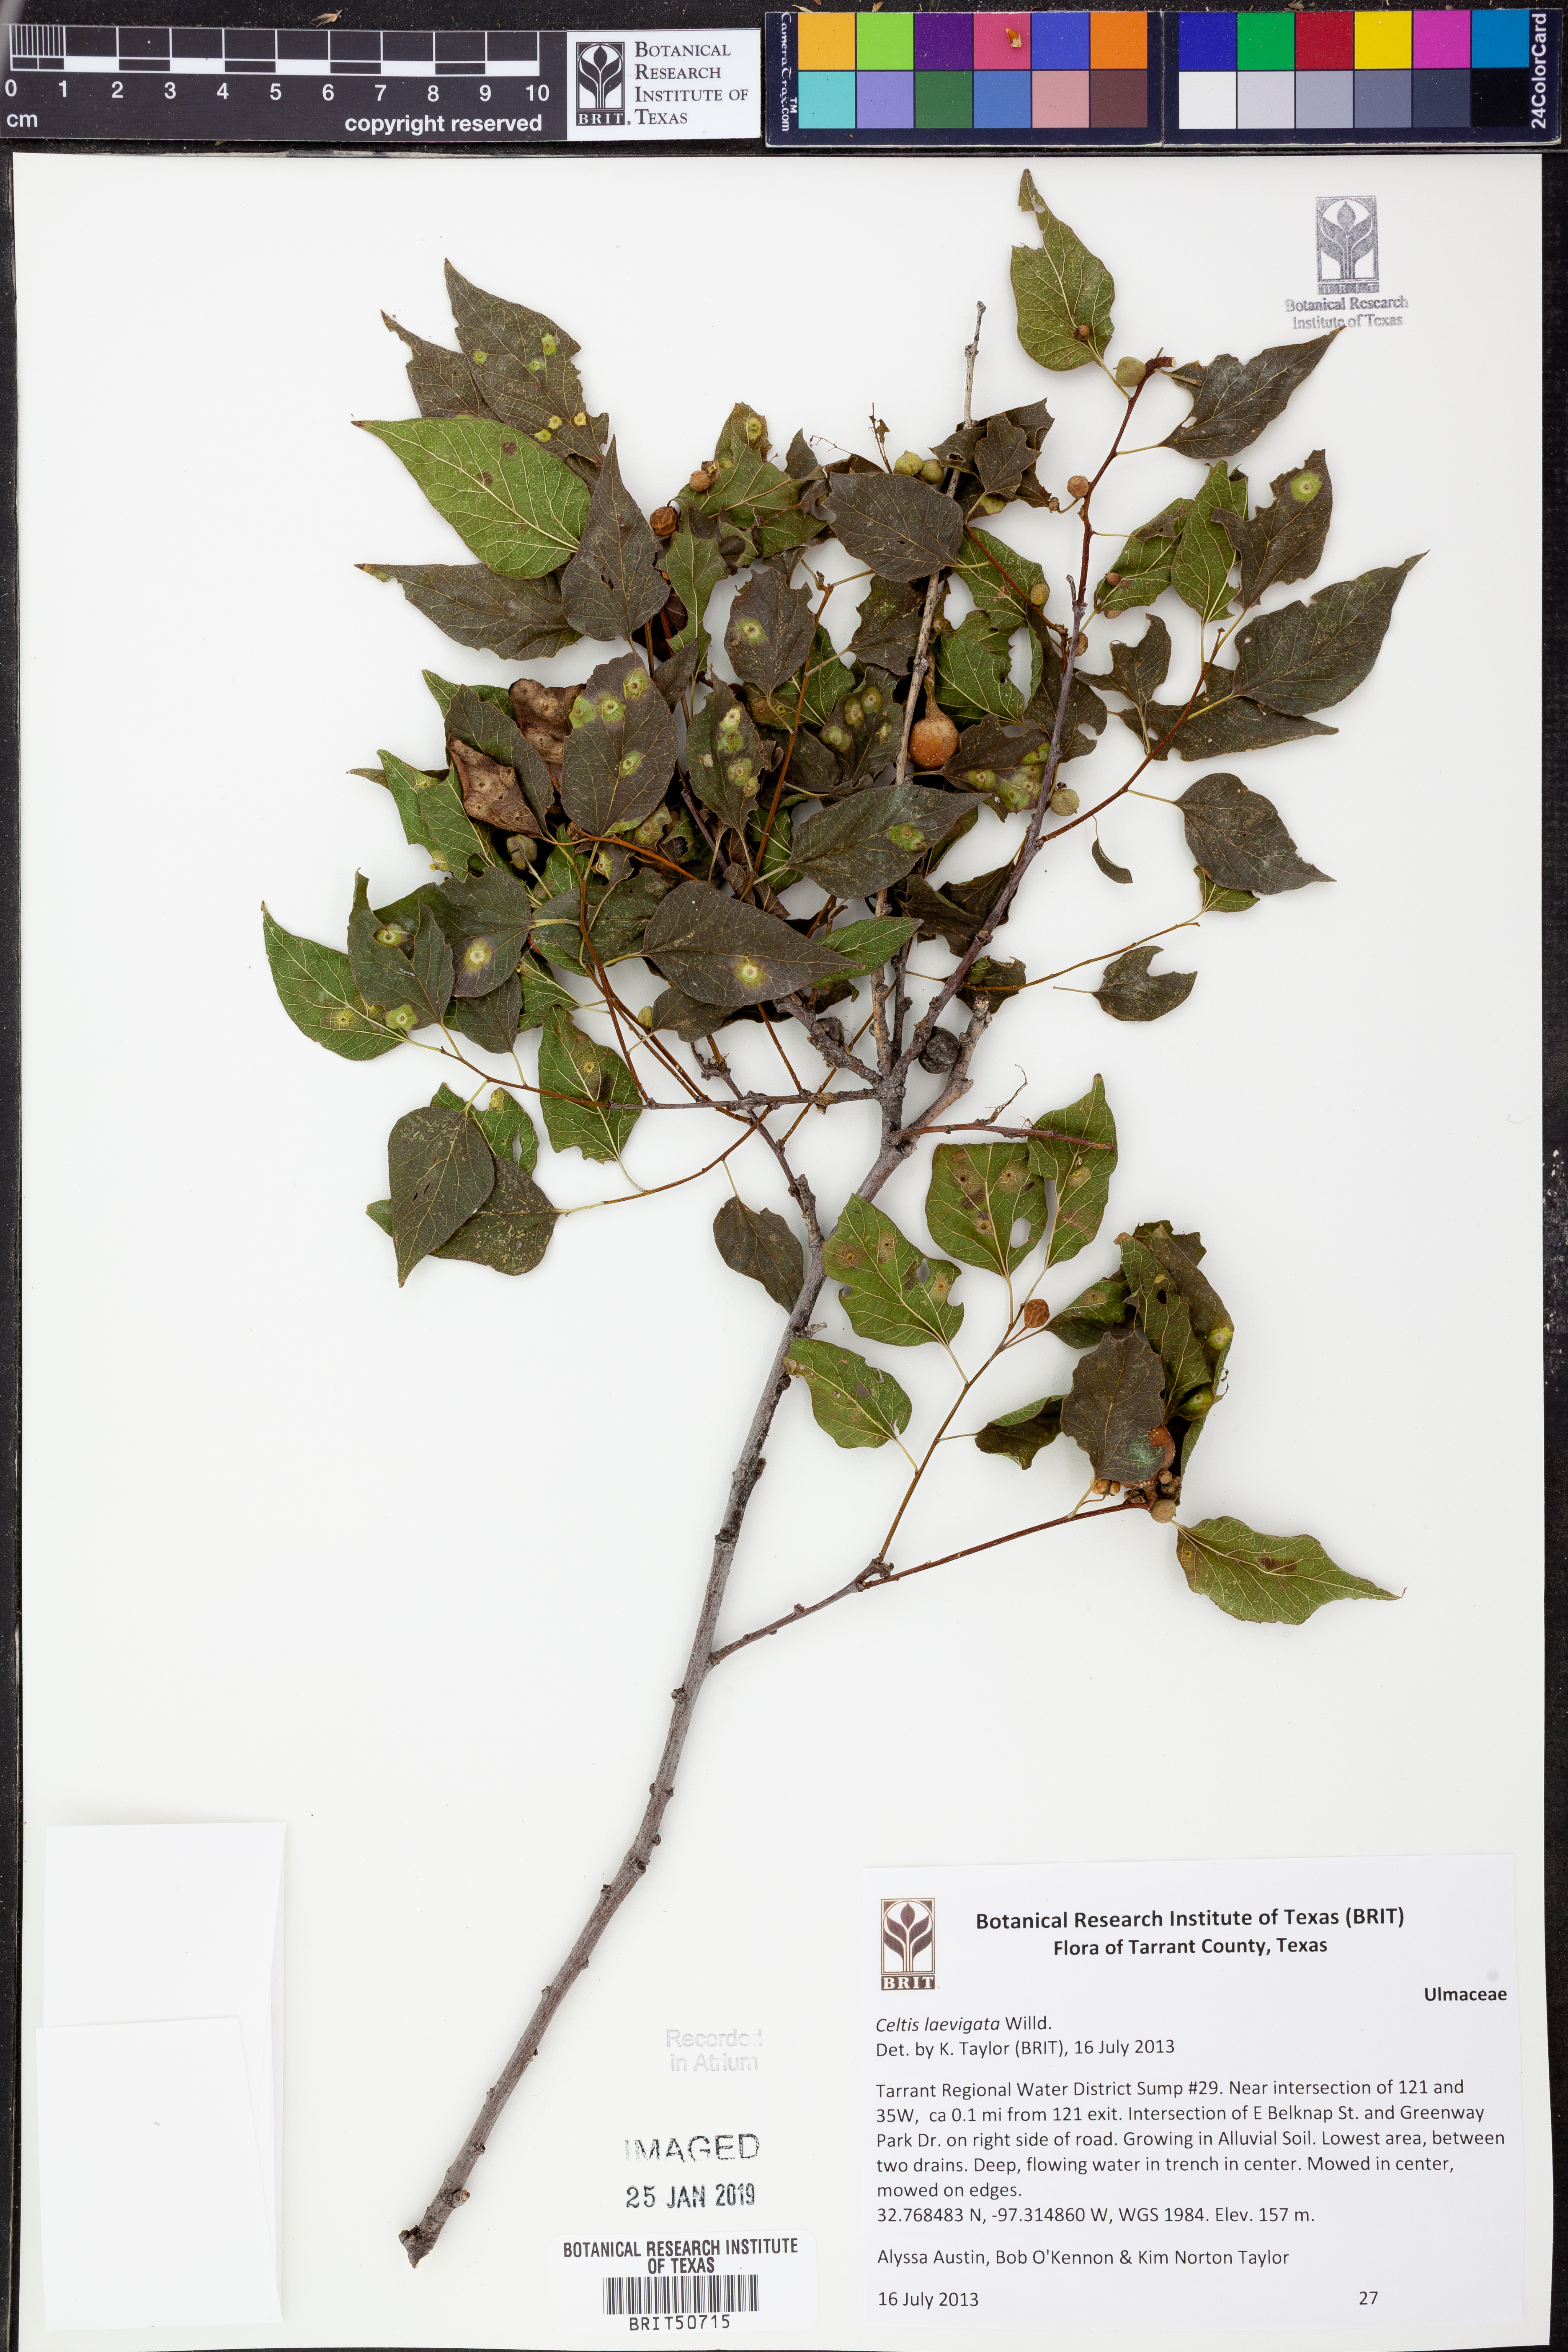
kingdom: Plantae
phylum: Tracheophyta
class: Magnoliopsida
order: Rosales
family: Cannabaceae
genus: Celtis
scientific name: Celtis laevigata
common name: Sugarberry
